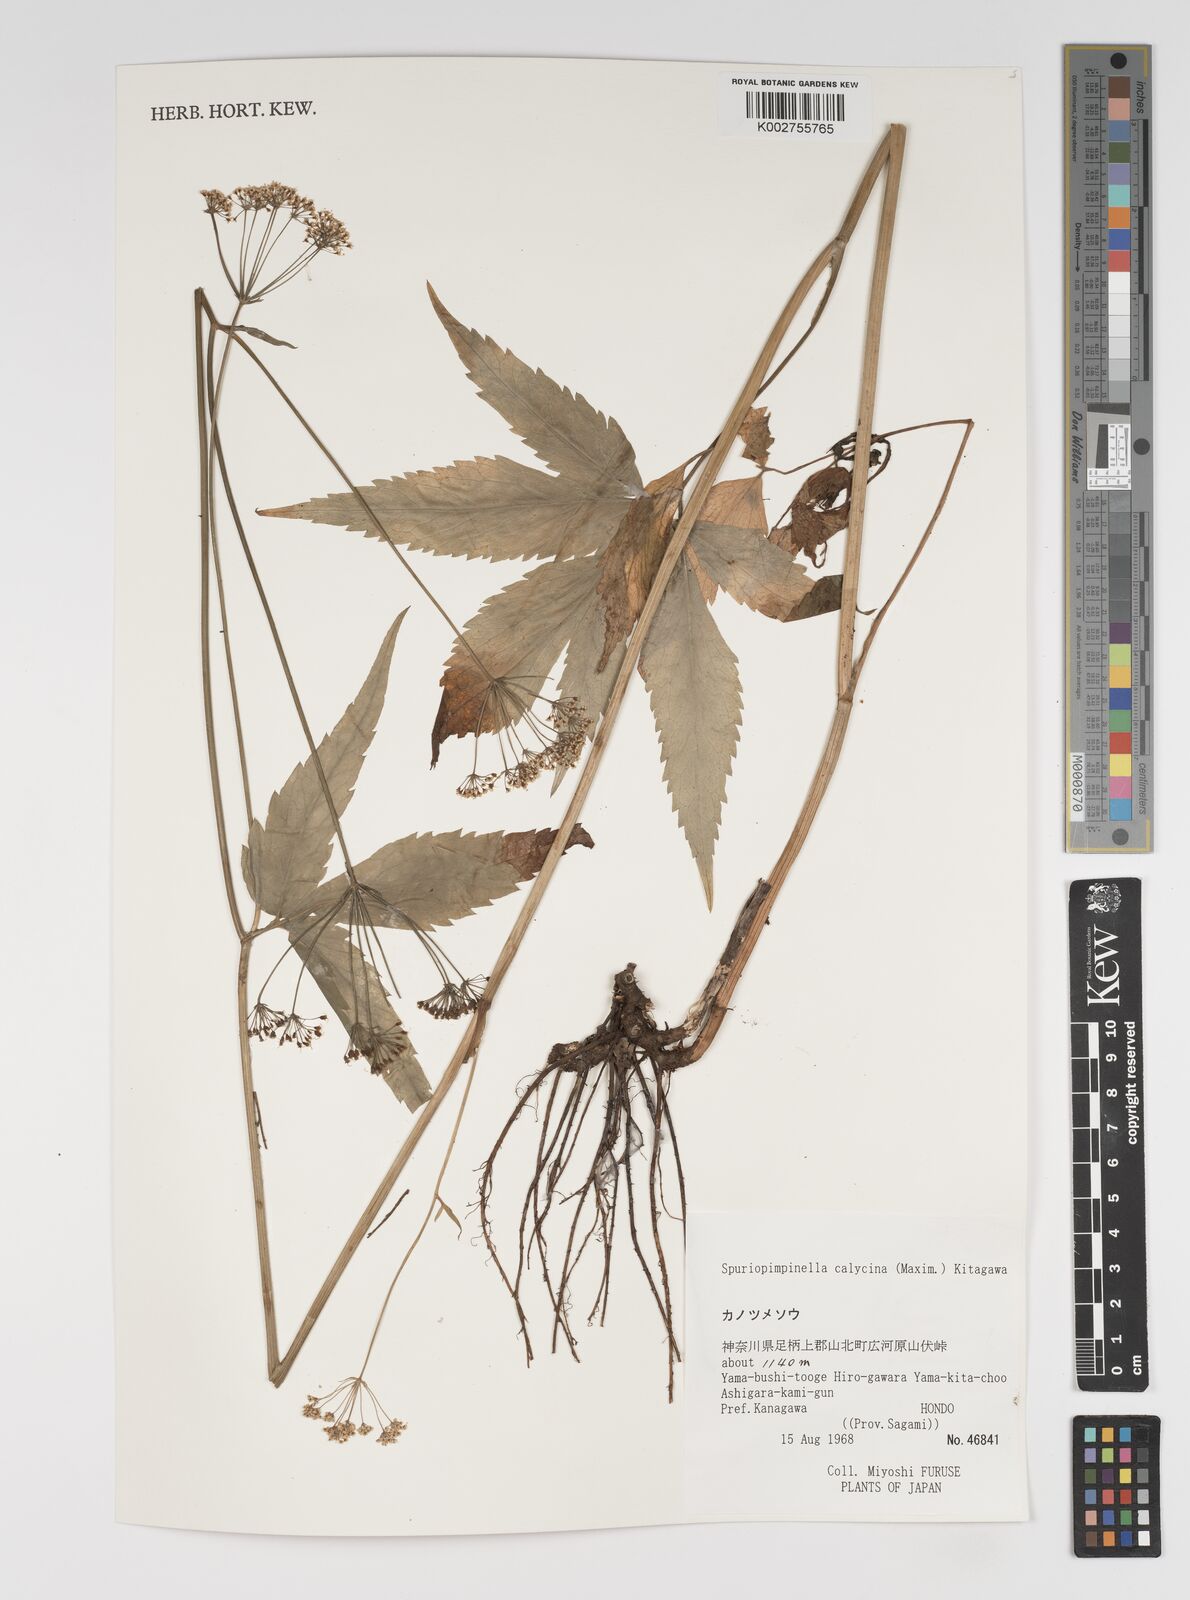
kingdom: Plantae
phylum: Tracheophyta
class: Magnoliopsida
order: Apiales
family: Apiaceae
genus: Spuriopimpinella
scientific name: Spuriopimpinella calycina
